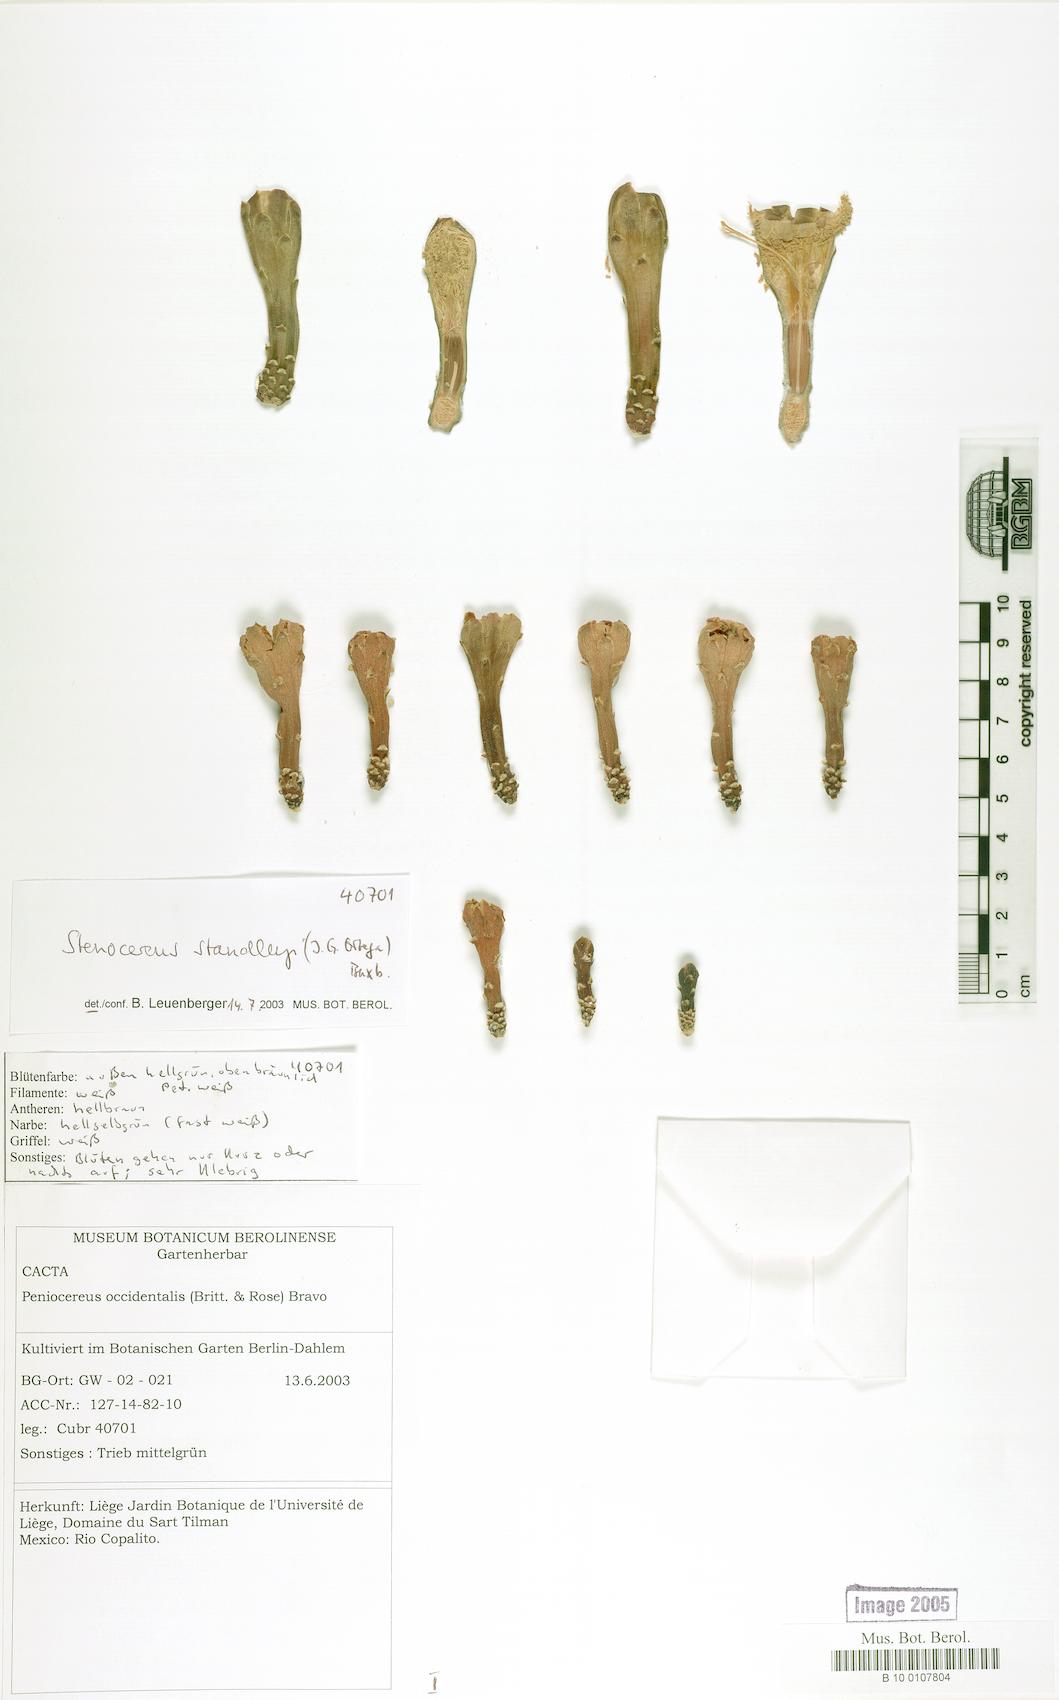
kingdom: Plantae
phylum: Tracheophyta
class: Magnoliopsida
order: Caryophyllales
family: Cactaceae
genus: Stenocereus
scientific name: Stenocereus standleyi
